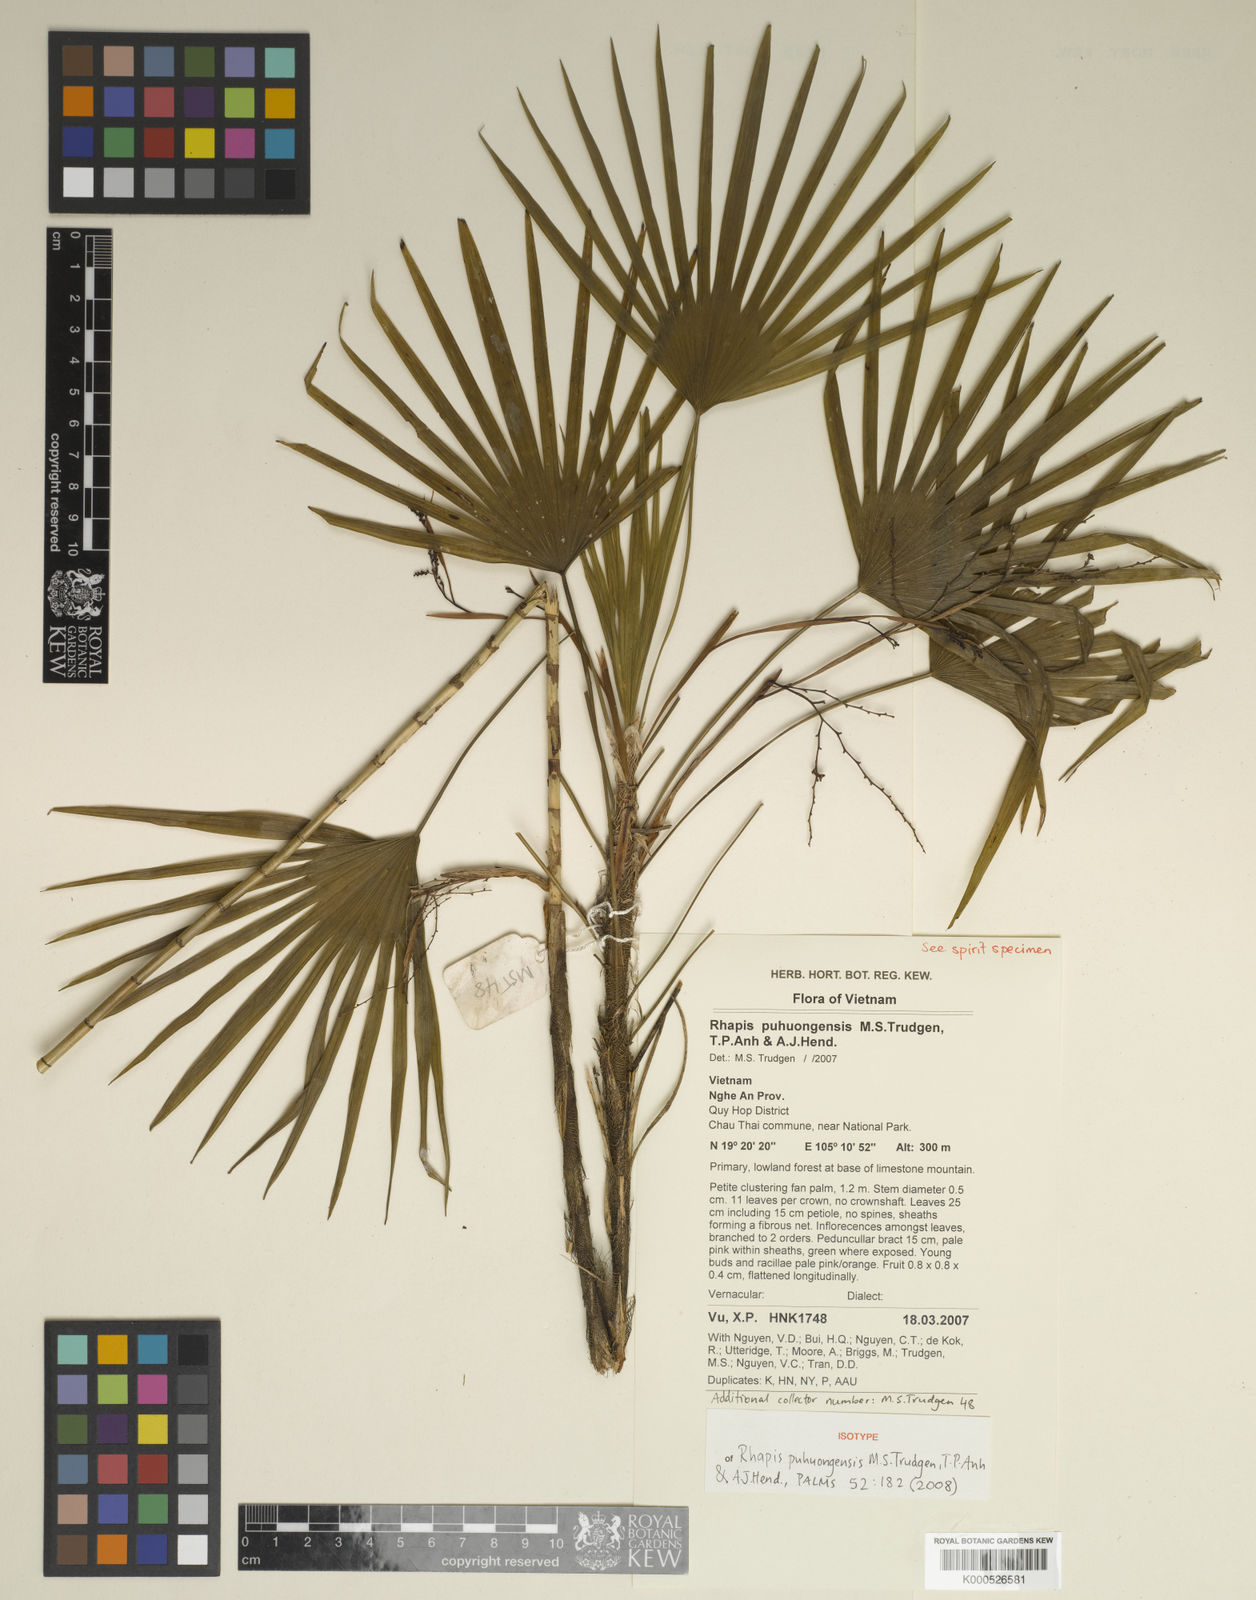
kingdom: Plantae
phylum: Tracheophyta
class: Liliopsida
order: Arecales
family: Arecaceae
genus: Rhapis
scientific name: Rhapis puhuongensis
